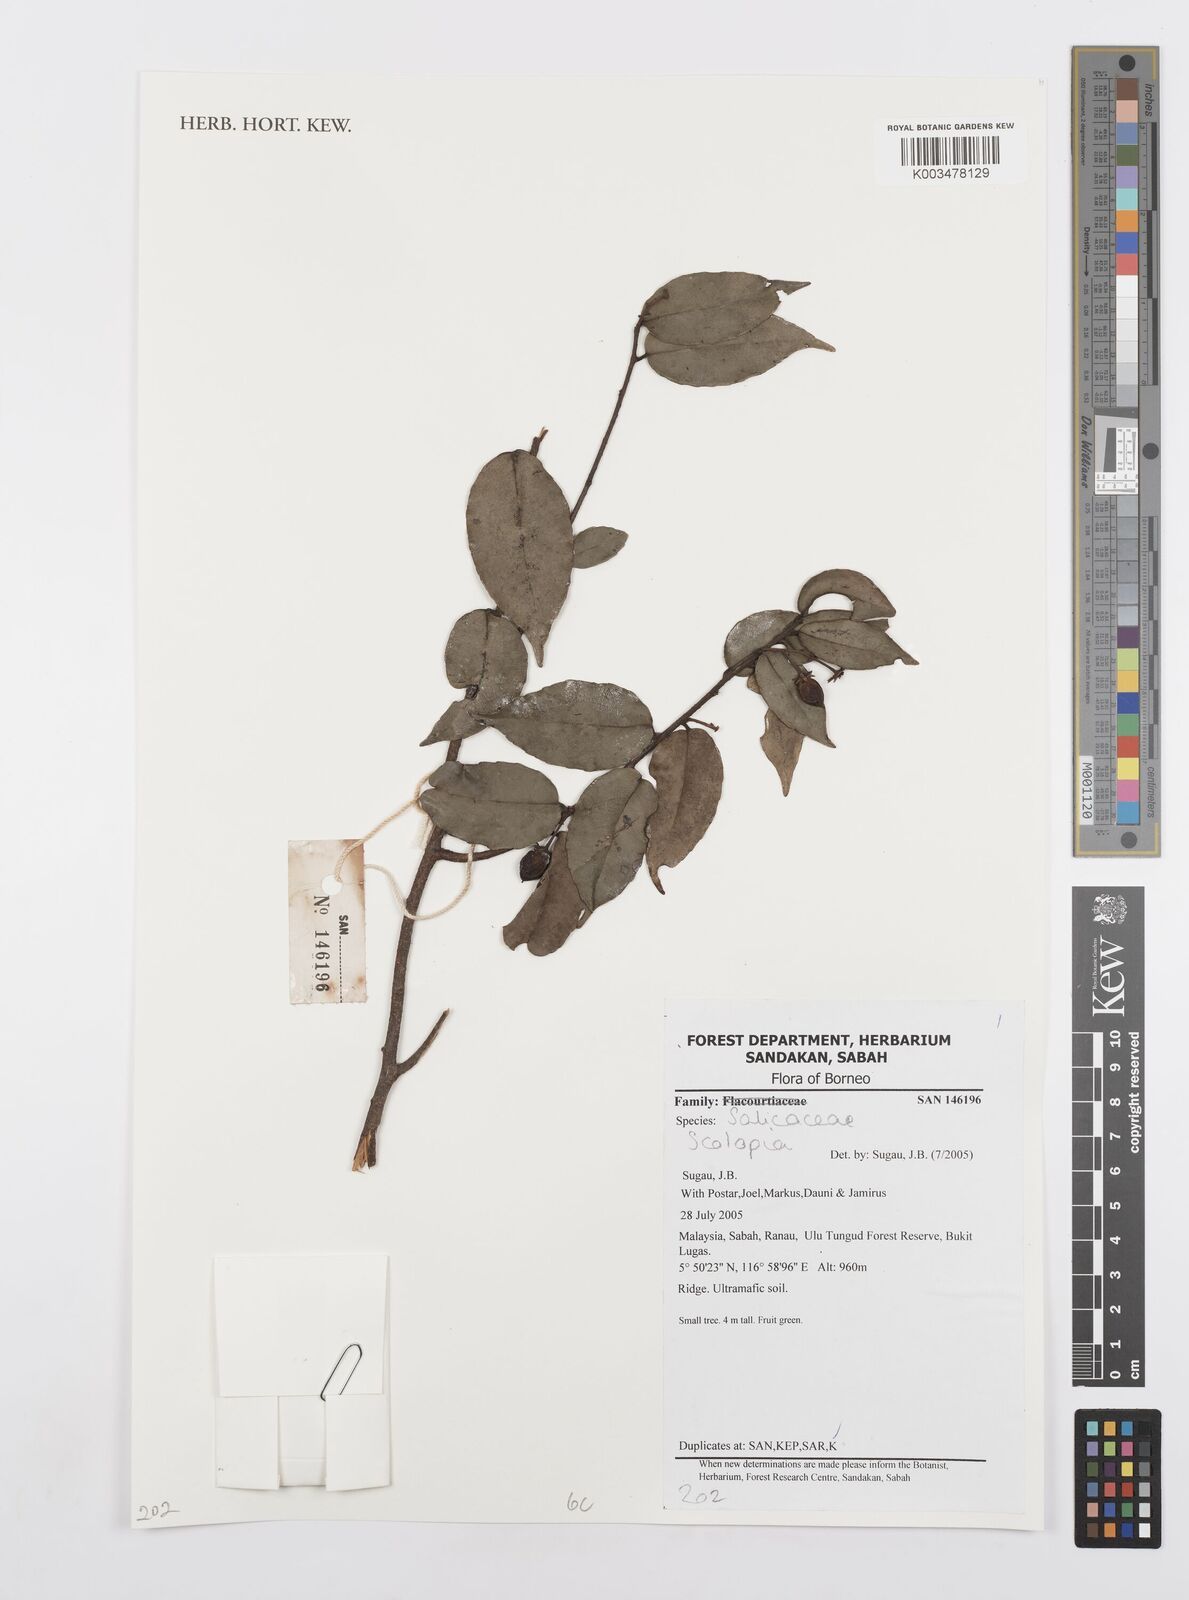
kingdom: Plantae
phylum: Tracheophyta
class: Magnoliopsida
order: Malpighiales
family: Salicaceae
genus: Scolopia
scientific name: Scolopia
